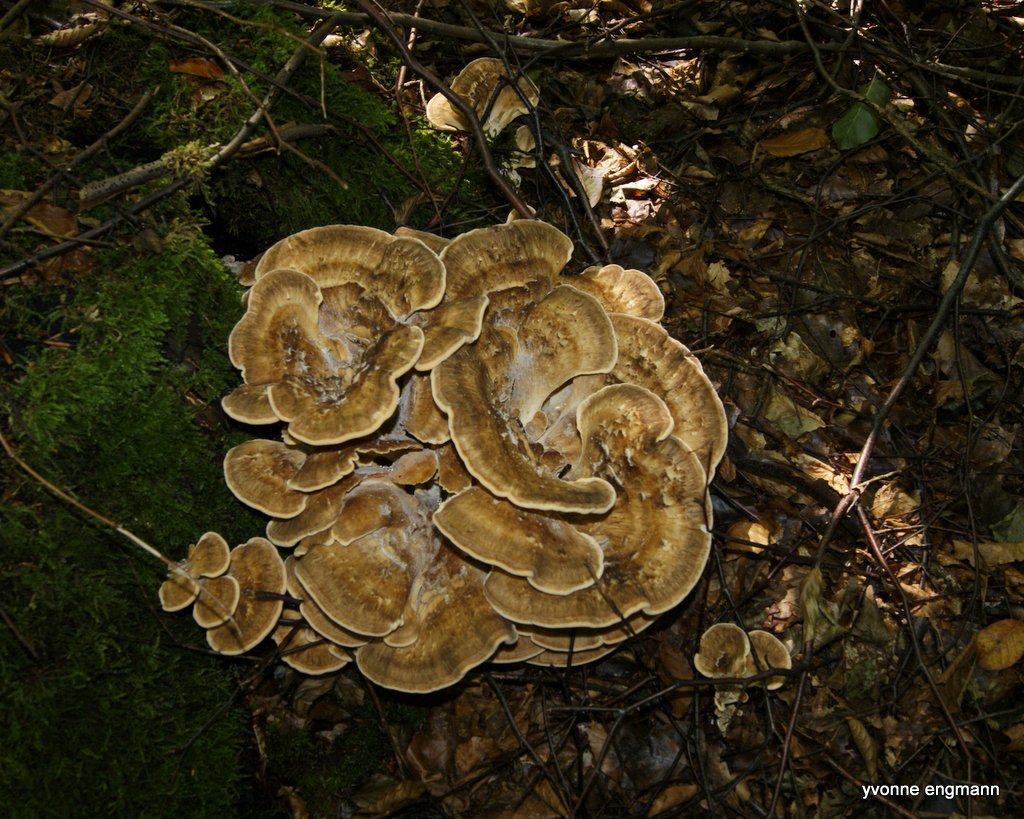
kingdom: Fungi
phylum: Basidiomycota
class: Agaricomycetes
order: Polyporales
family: Meripilaceae
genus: Meripilus
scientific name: Meripilus giganteus
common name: kæmpeporesvamp
